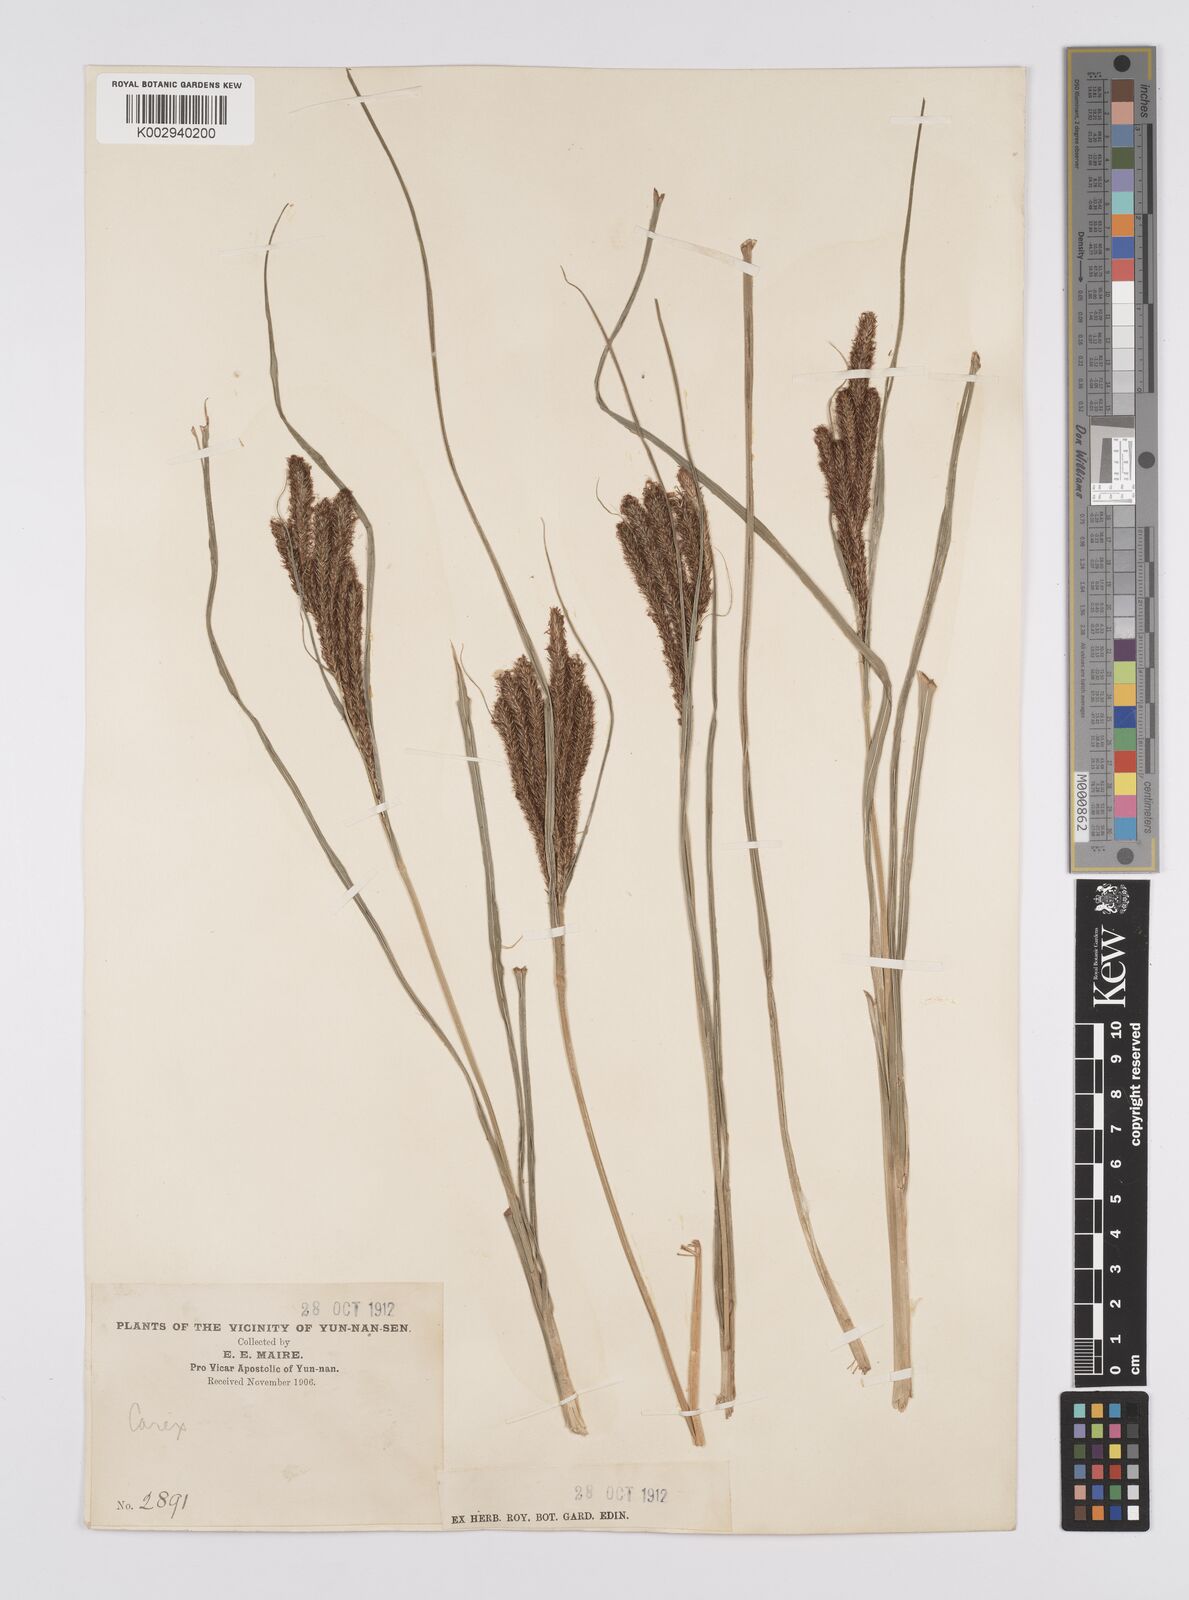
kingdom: Plantae
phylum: Tracheophyta
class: Liliopsida
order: Poales
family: Cyperaceae
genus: Carex
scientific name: Carex rubrobrunnea
